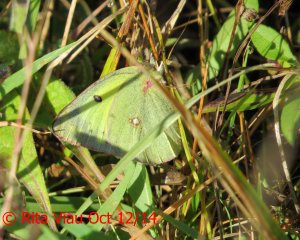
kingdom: Animalia
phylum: Arthropoda
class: Insecta
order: Lepidoptera
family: Pieridae
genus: Colias
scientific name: Colias philodice
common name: Clouded Sulphur
